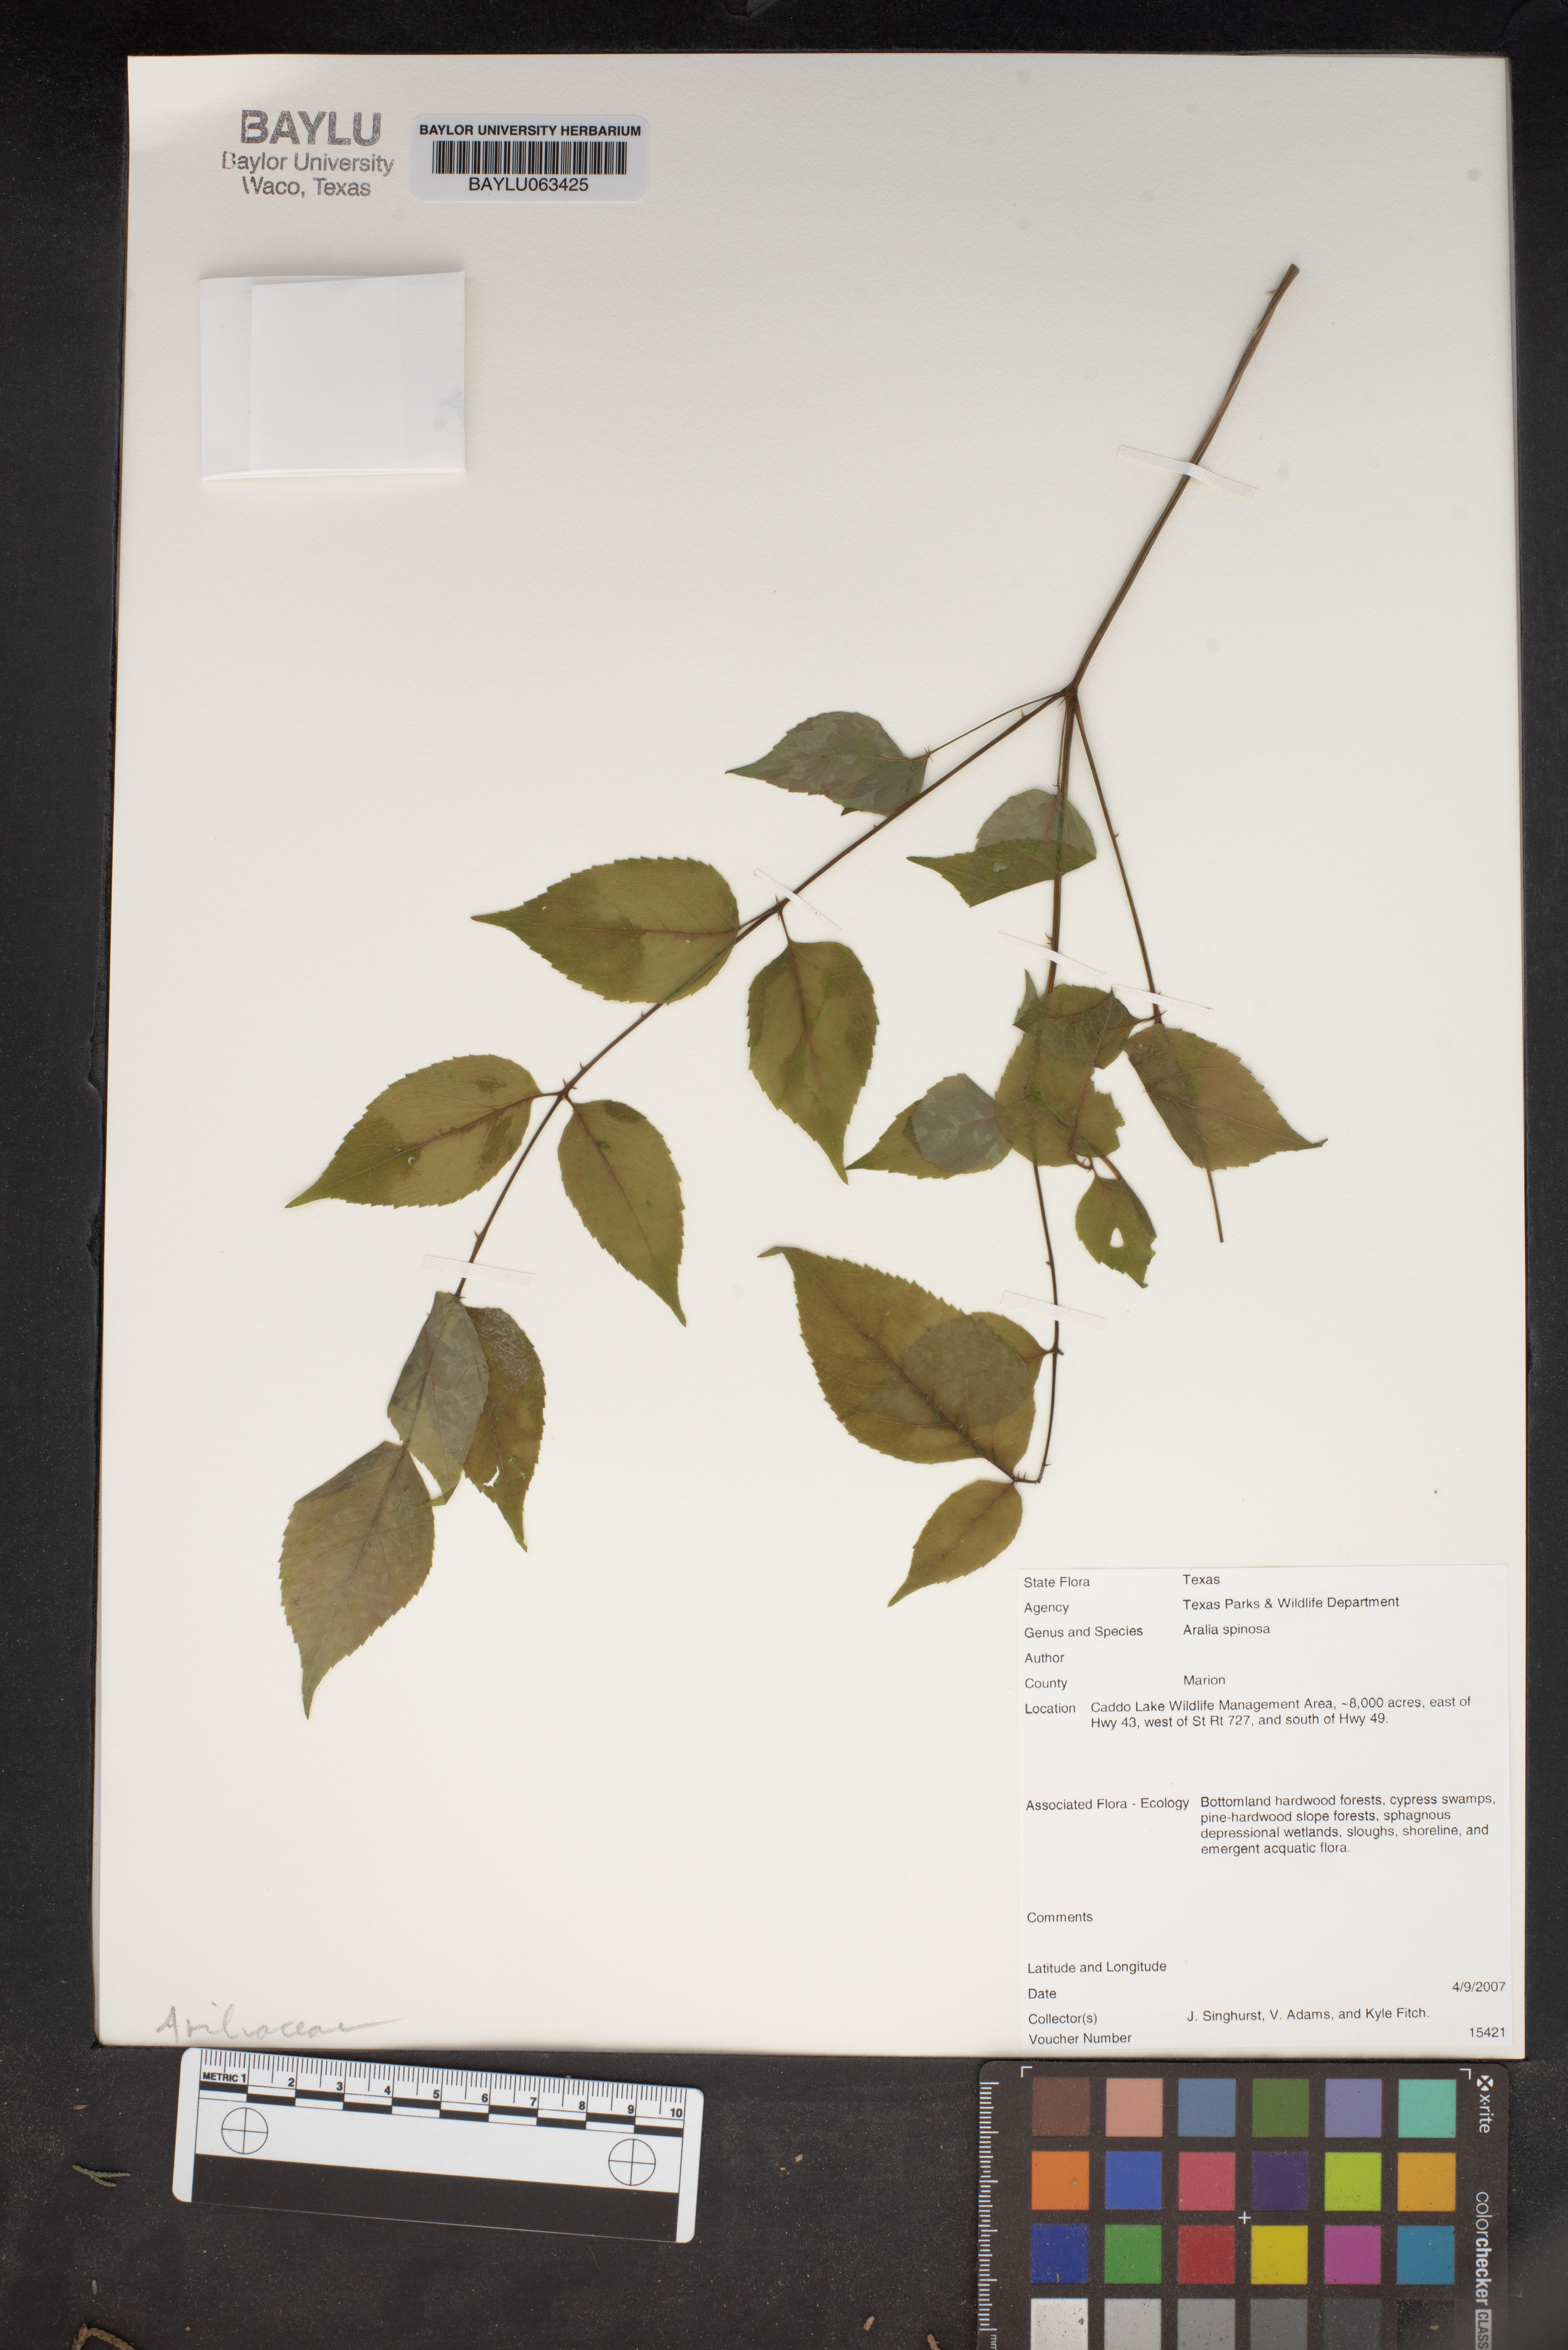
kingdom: Plantae
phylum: Tracheophyta
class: Magnoliopsida
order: Apiales
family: Araliaceae
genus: Aralia
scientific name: Aralia spinosa
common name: Hercules'-club
